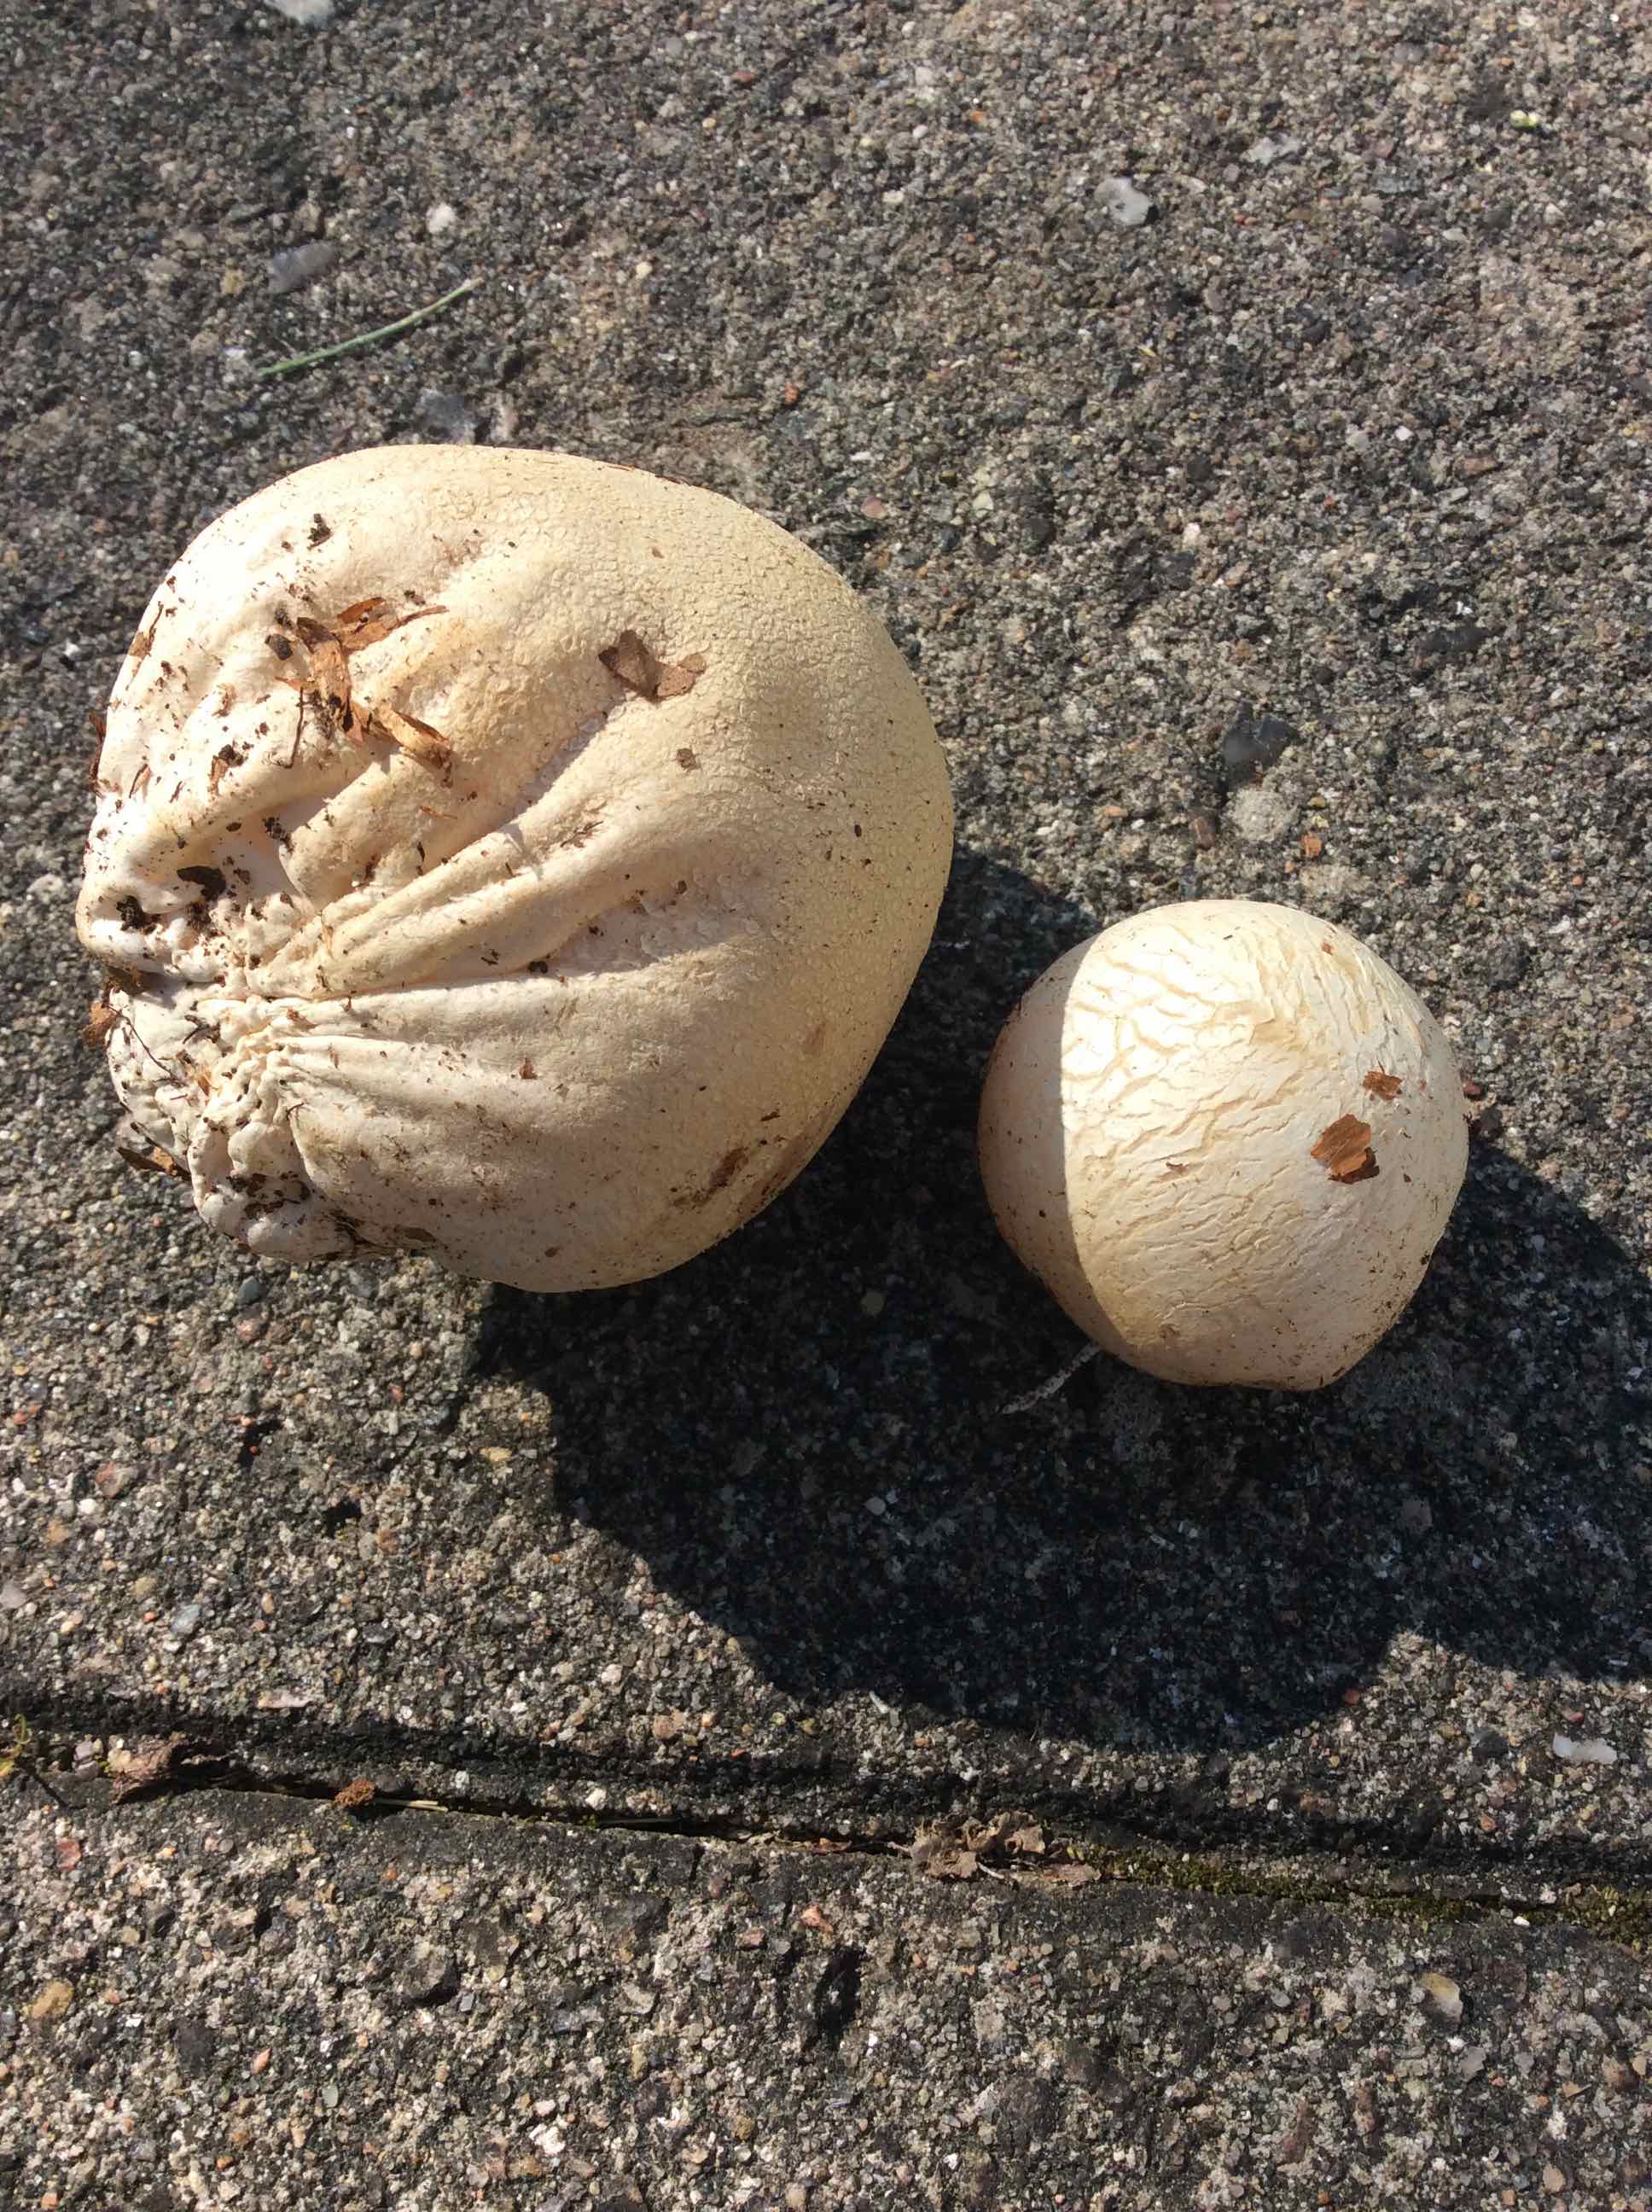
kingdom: Fungi
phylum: Basidiomycota
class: Agaricomycetes
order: Phallales
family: Phallaceae
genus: Phallus
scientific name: Phallus impudicus
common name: almindelig stinksvamp
